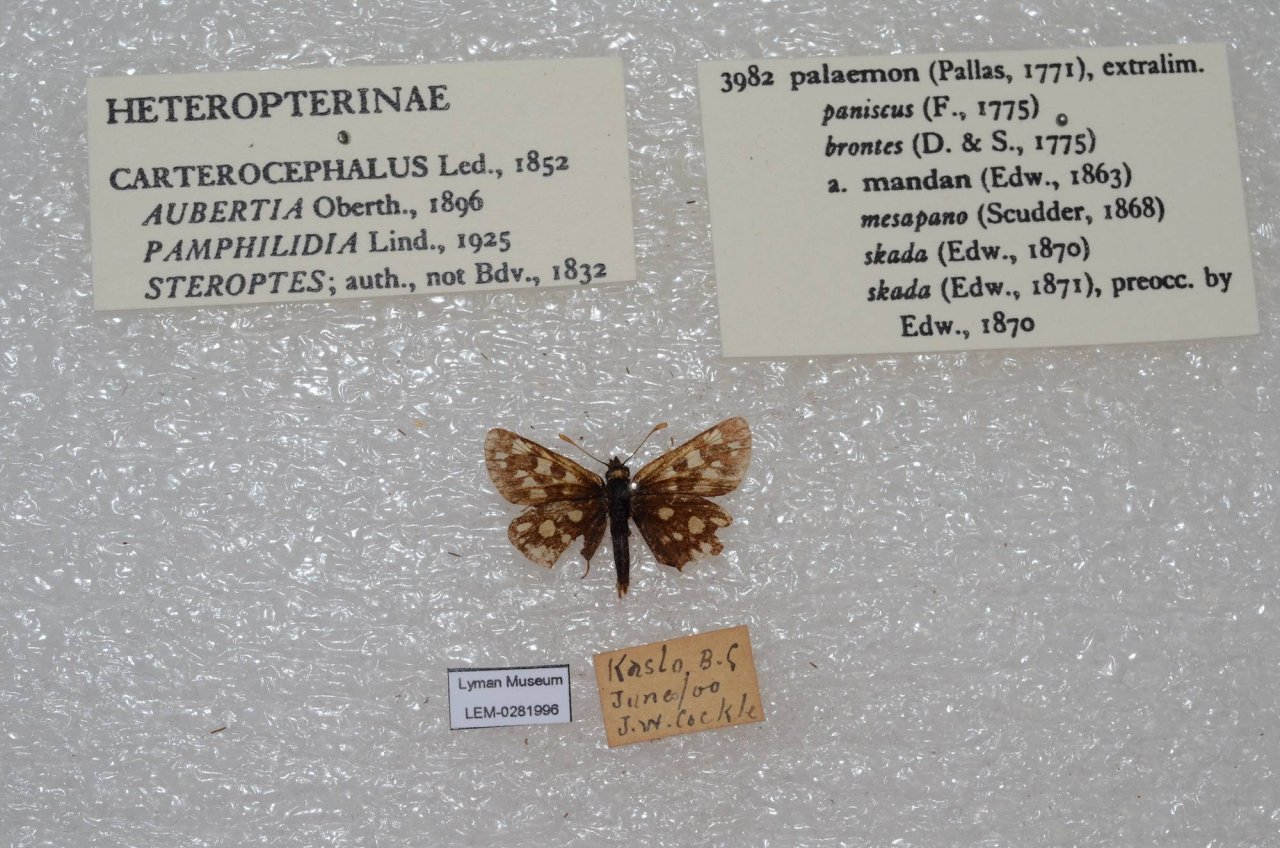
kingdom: Animalia
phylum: Arthropoda
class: Insecta
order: Lepidoptera
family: Hesperiidae
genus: Carterocephalus
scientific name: Carterocephalus palaemon
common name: Chequered Skipper
